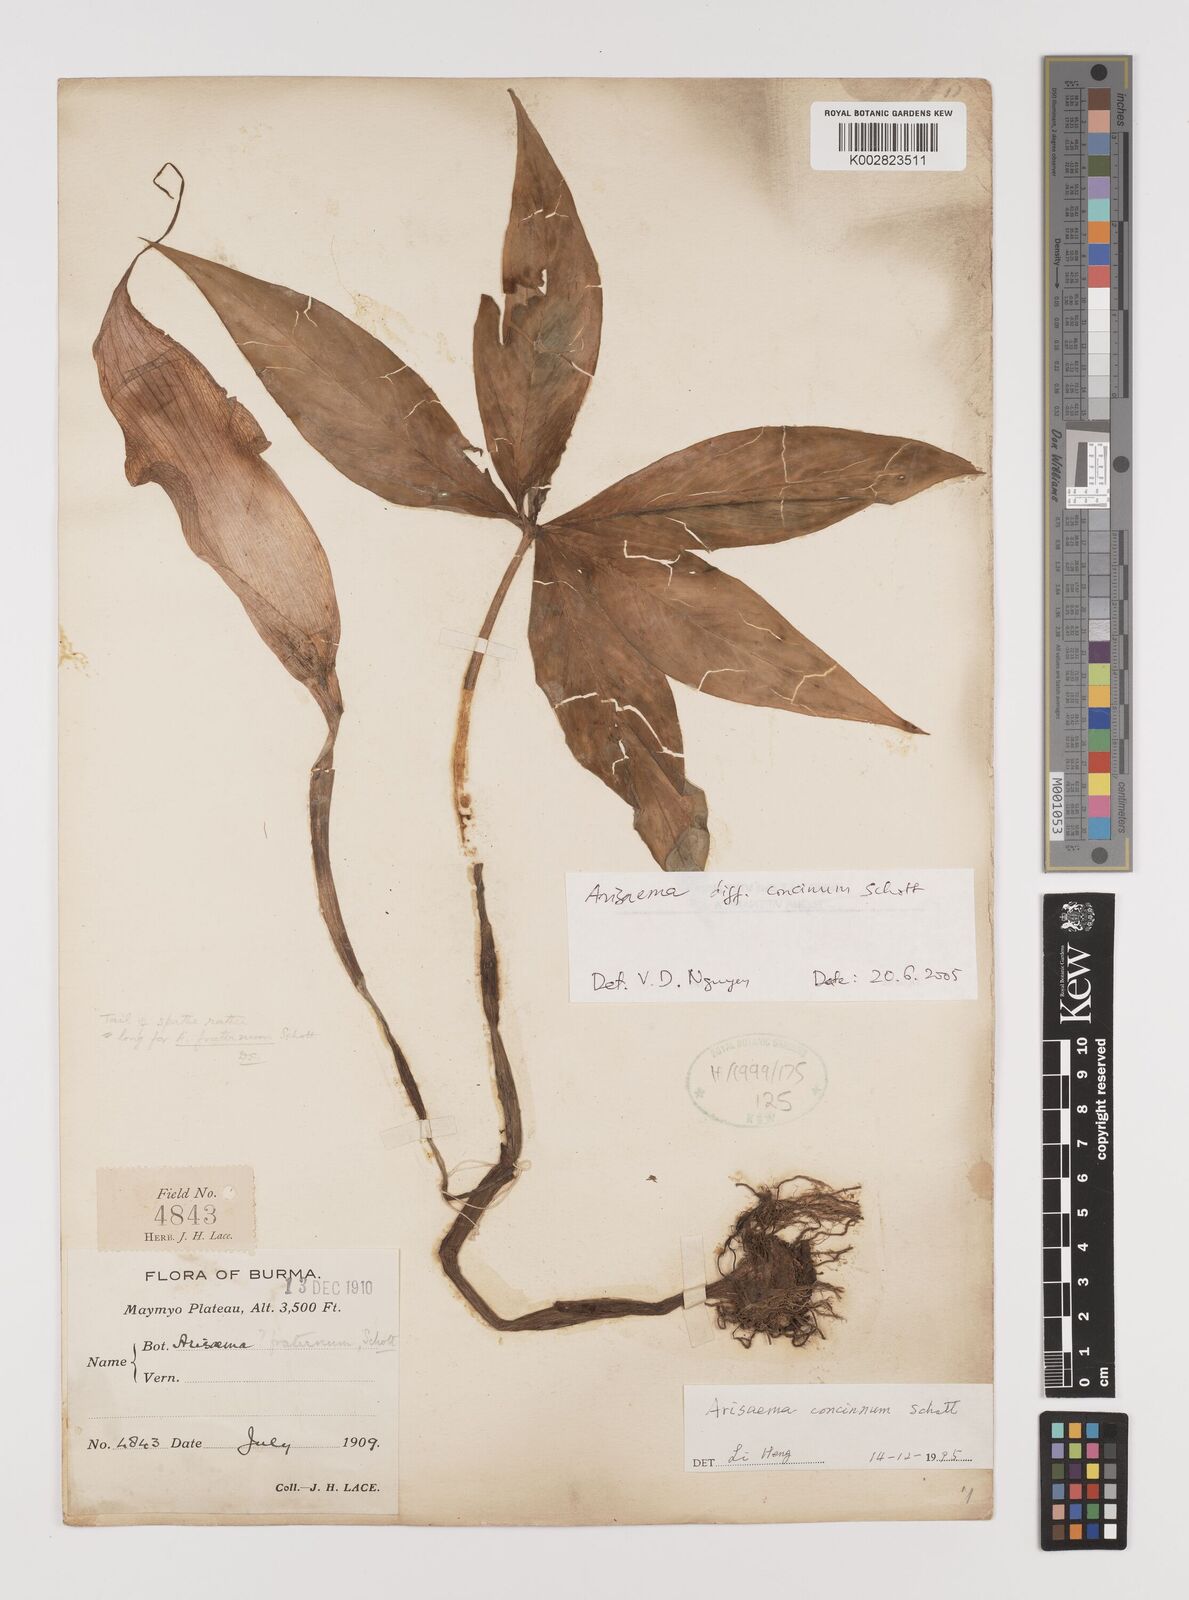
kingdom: Plantae
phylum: Tracheophyta
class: Liliopsida
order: Alismatales
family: Araceae
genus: Arisaema
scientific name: Arisaema
